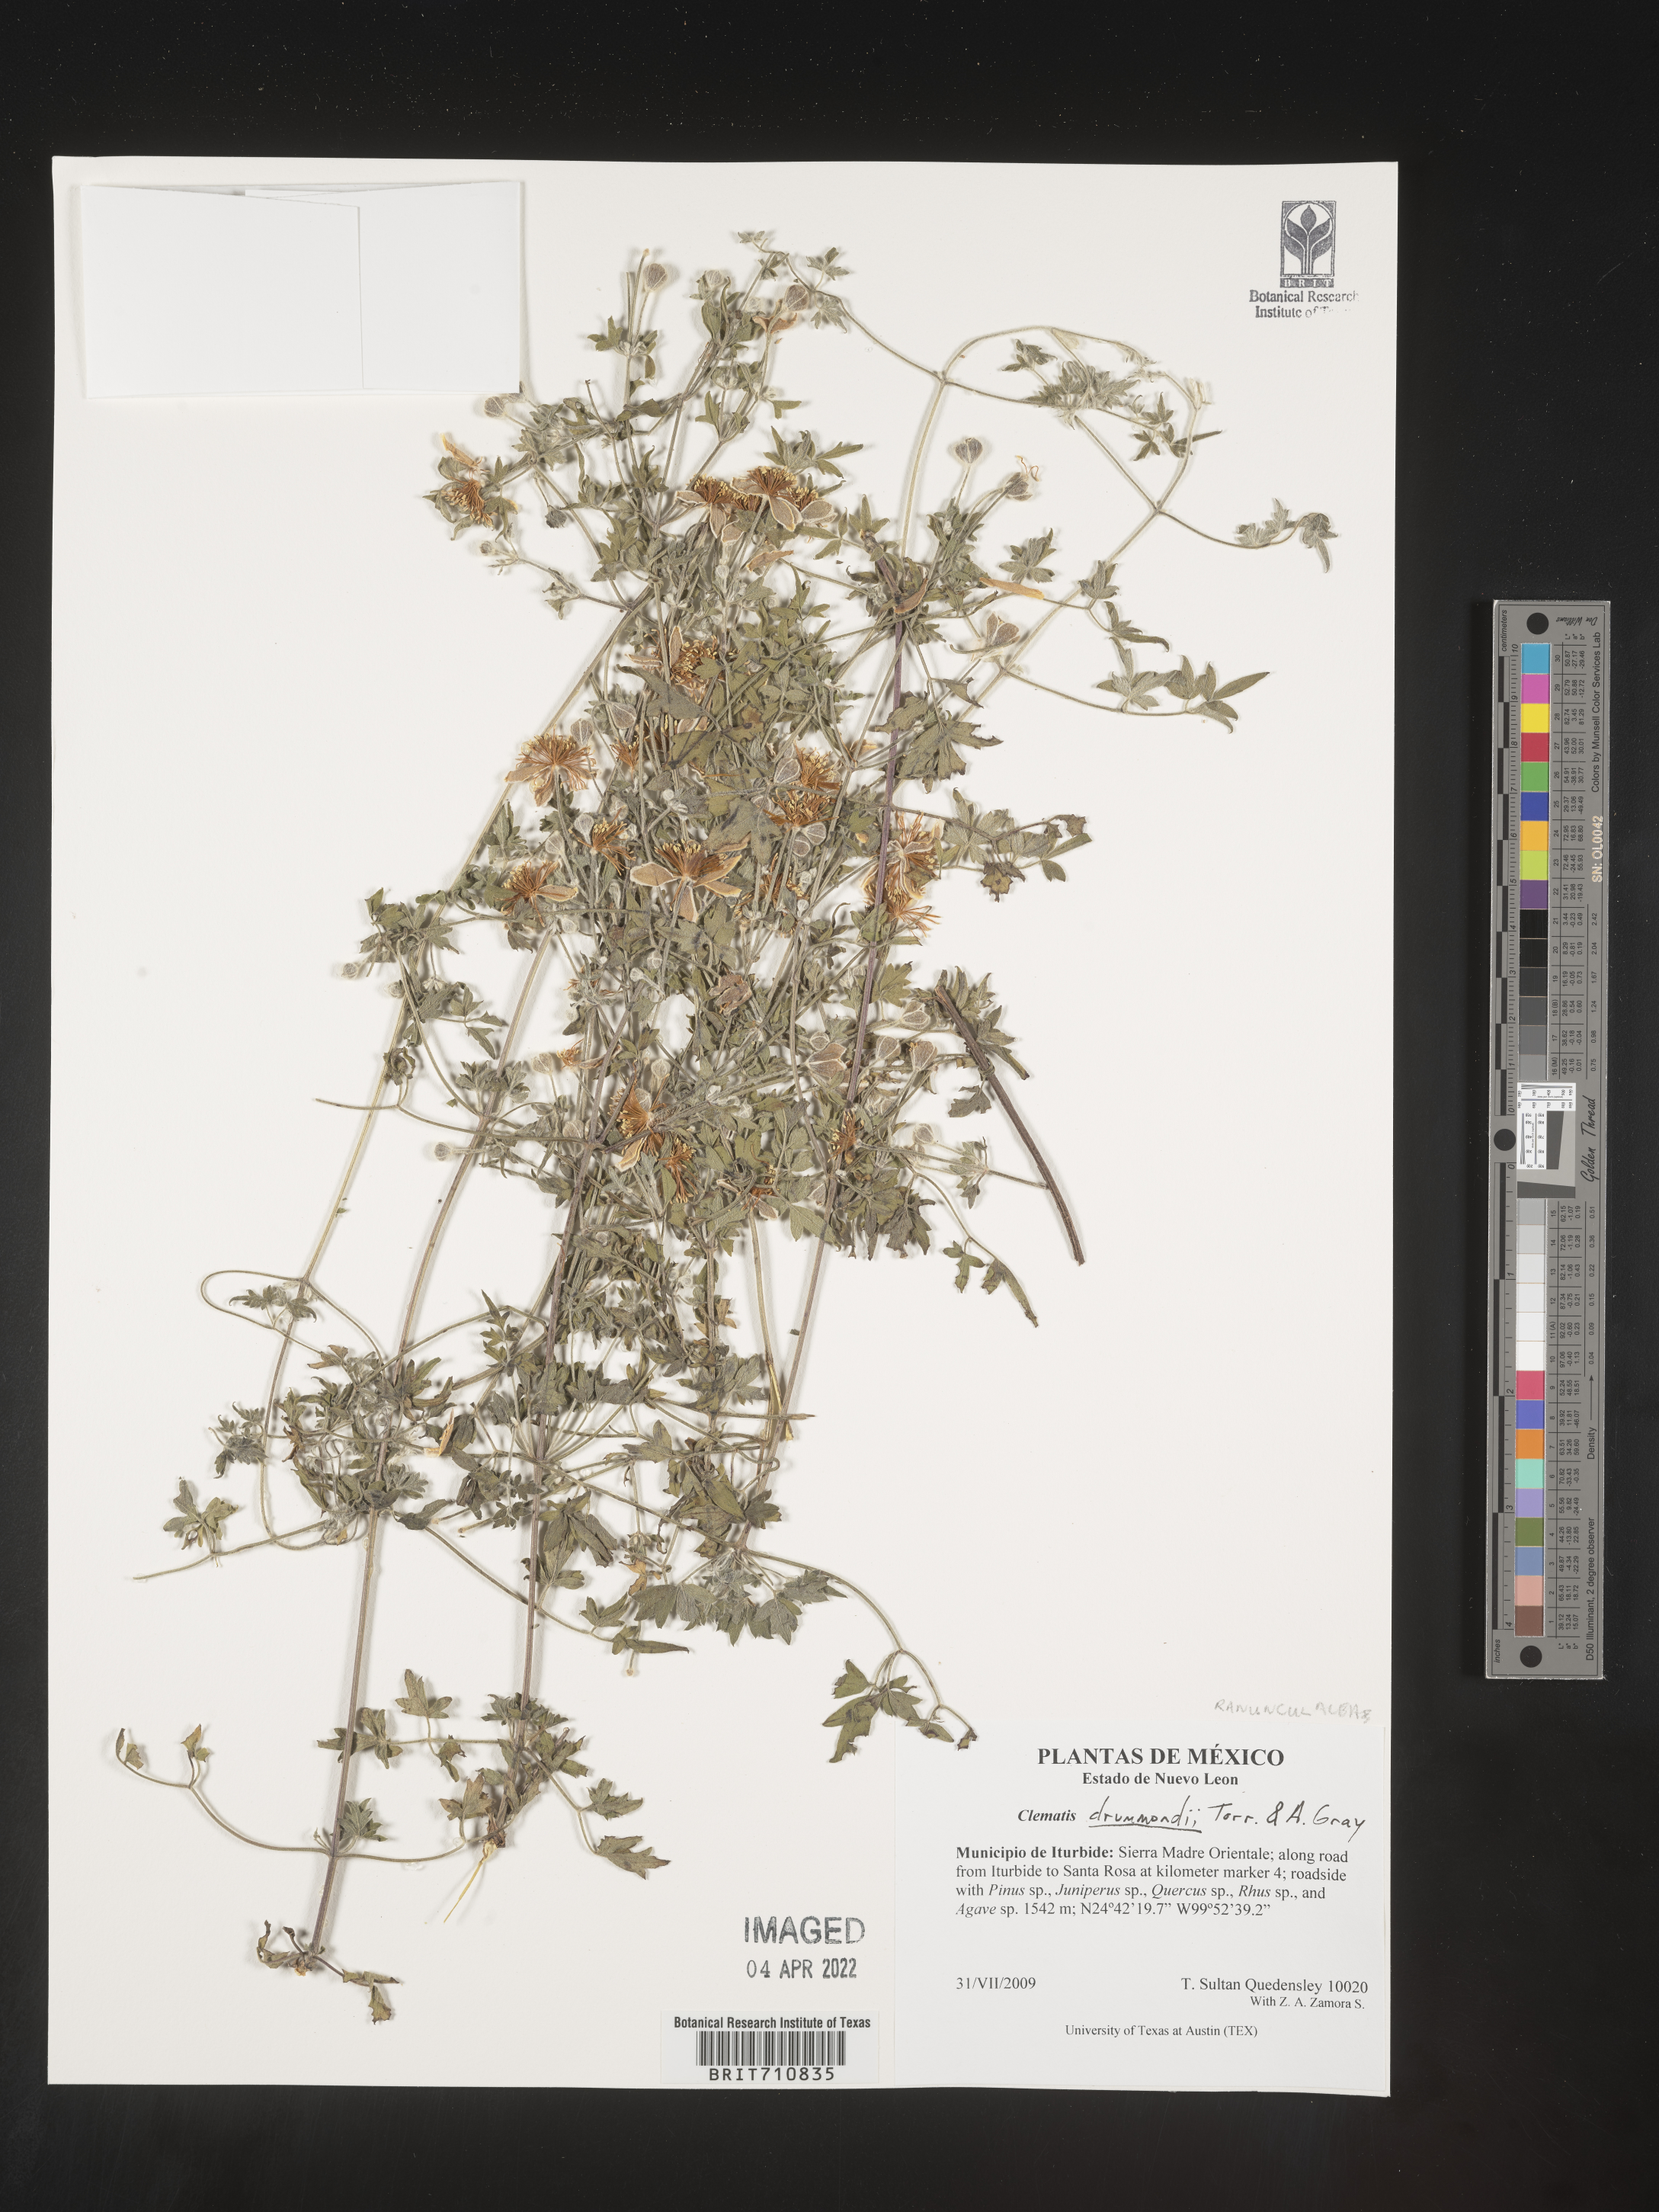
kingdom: Plantae
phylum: Tracheophyta
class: Magnoliopsida
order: Ranunculales
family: Ranunculaceae
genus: Clematis
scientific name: Clematis
